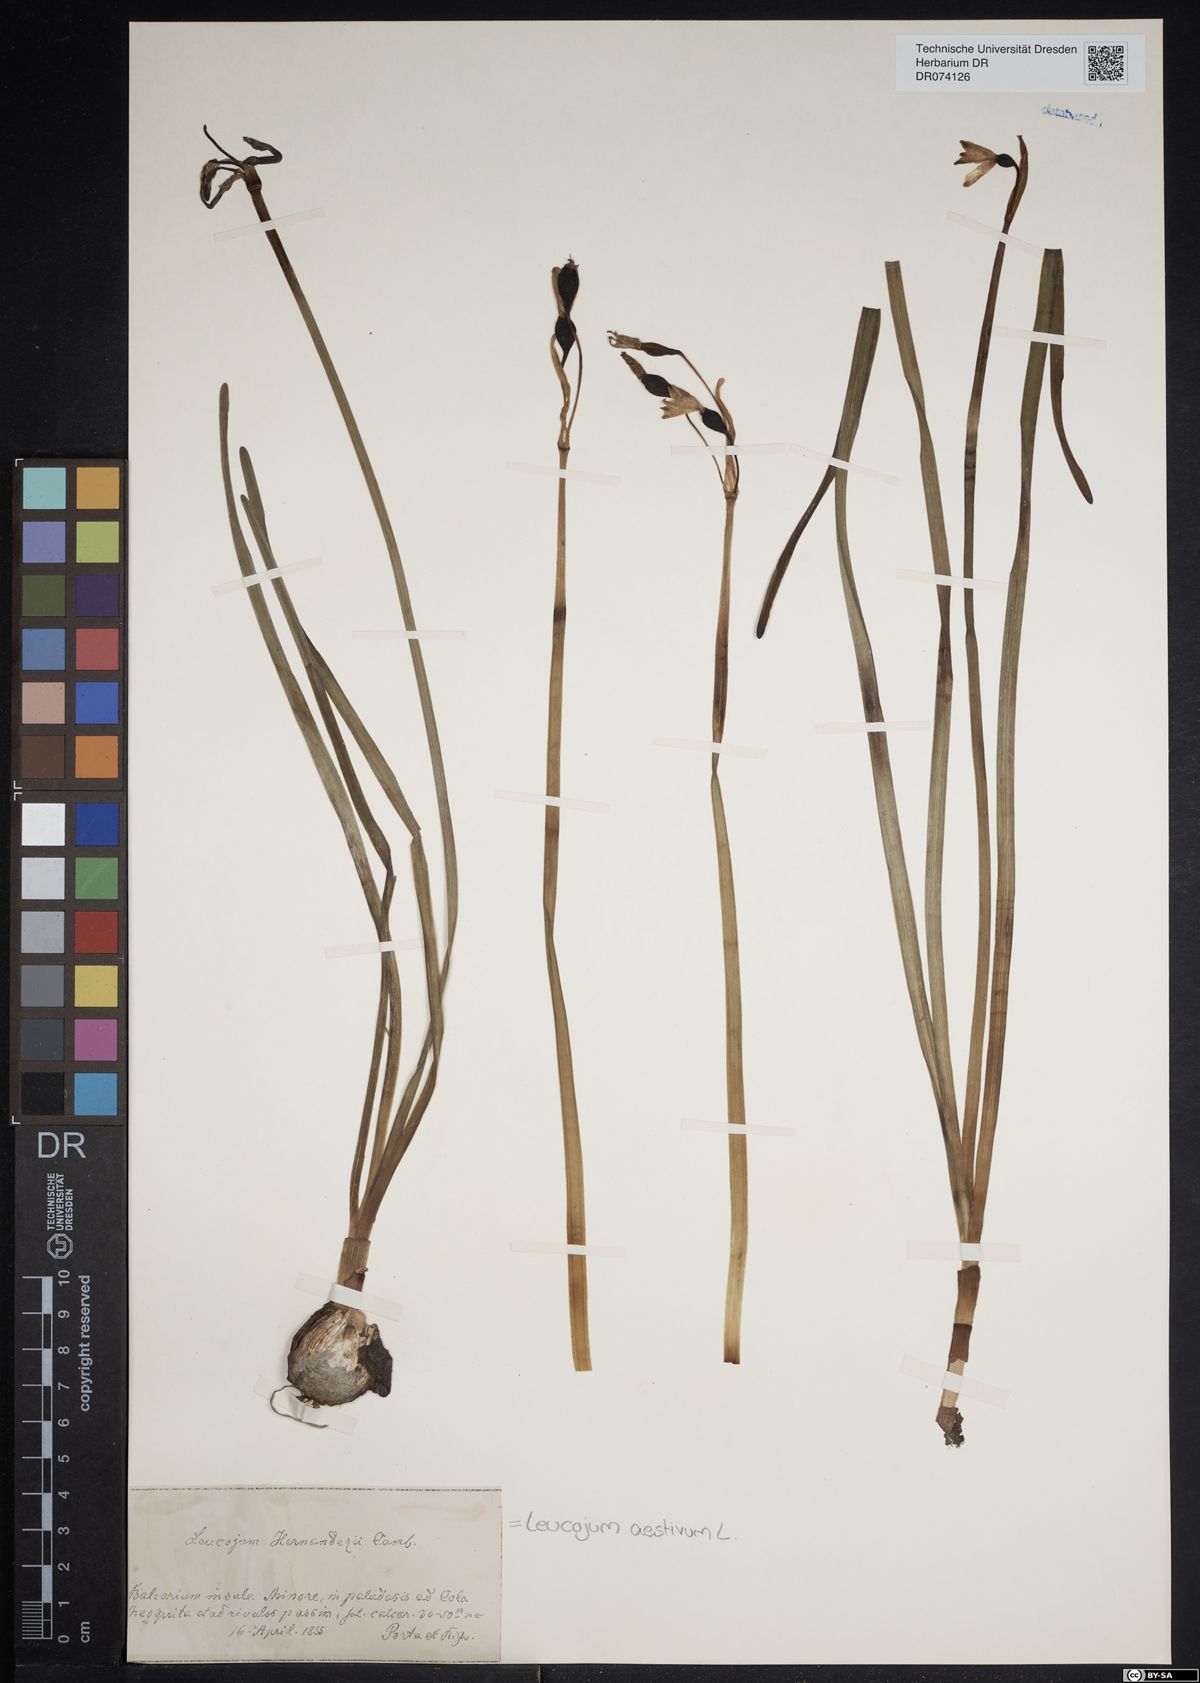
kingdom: Plantae
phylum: Tracheophyta
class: Liliopsida
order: Asparagales
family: Amaryllidaceae
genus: Leucojum
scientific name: Leucojum aestivum
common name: Summer snowflake
